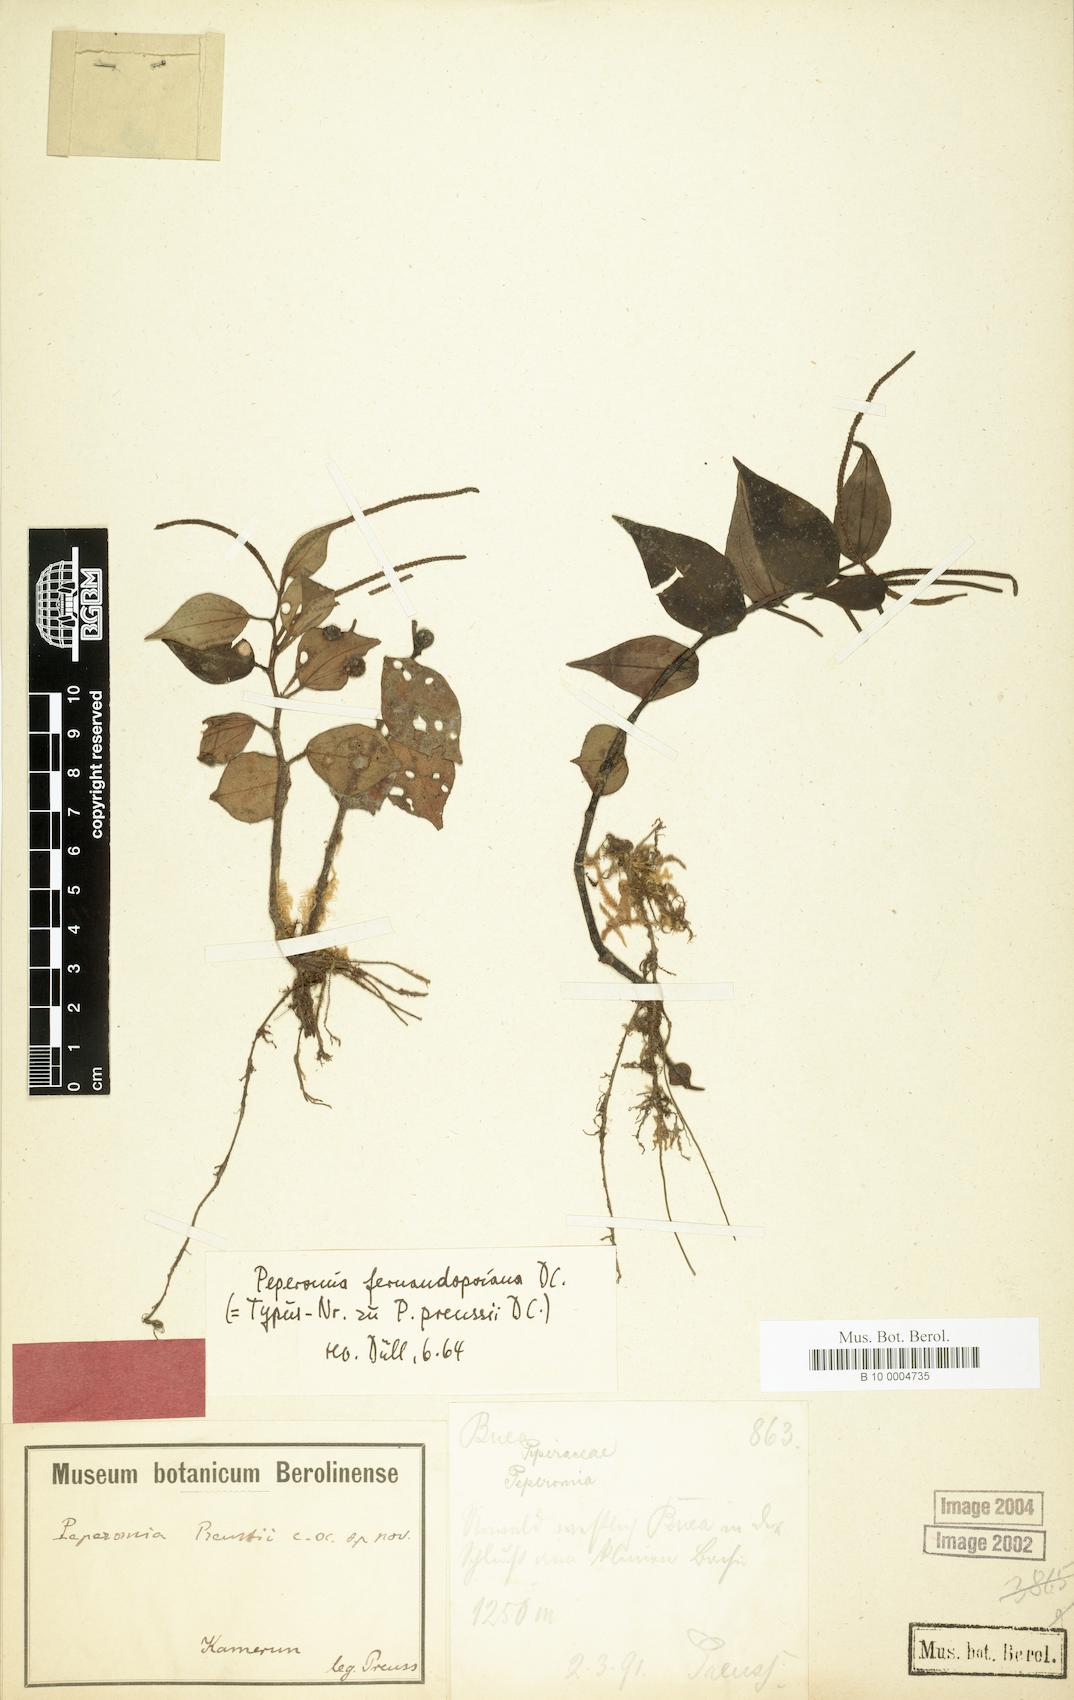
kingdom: Plantae
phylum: Tracheophyta
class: Magnoliopsida
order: Piperales
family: Piperaceae
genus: Peperomia
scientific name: Peperomia fernandopoiana
